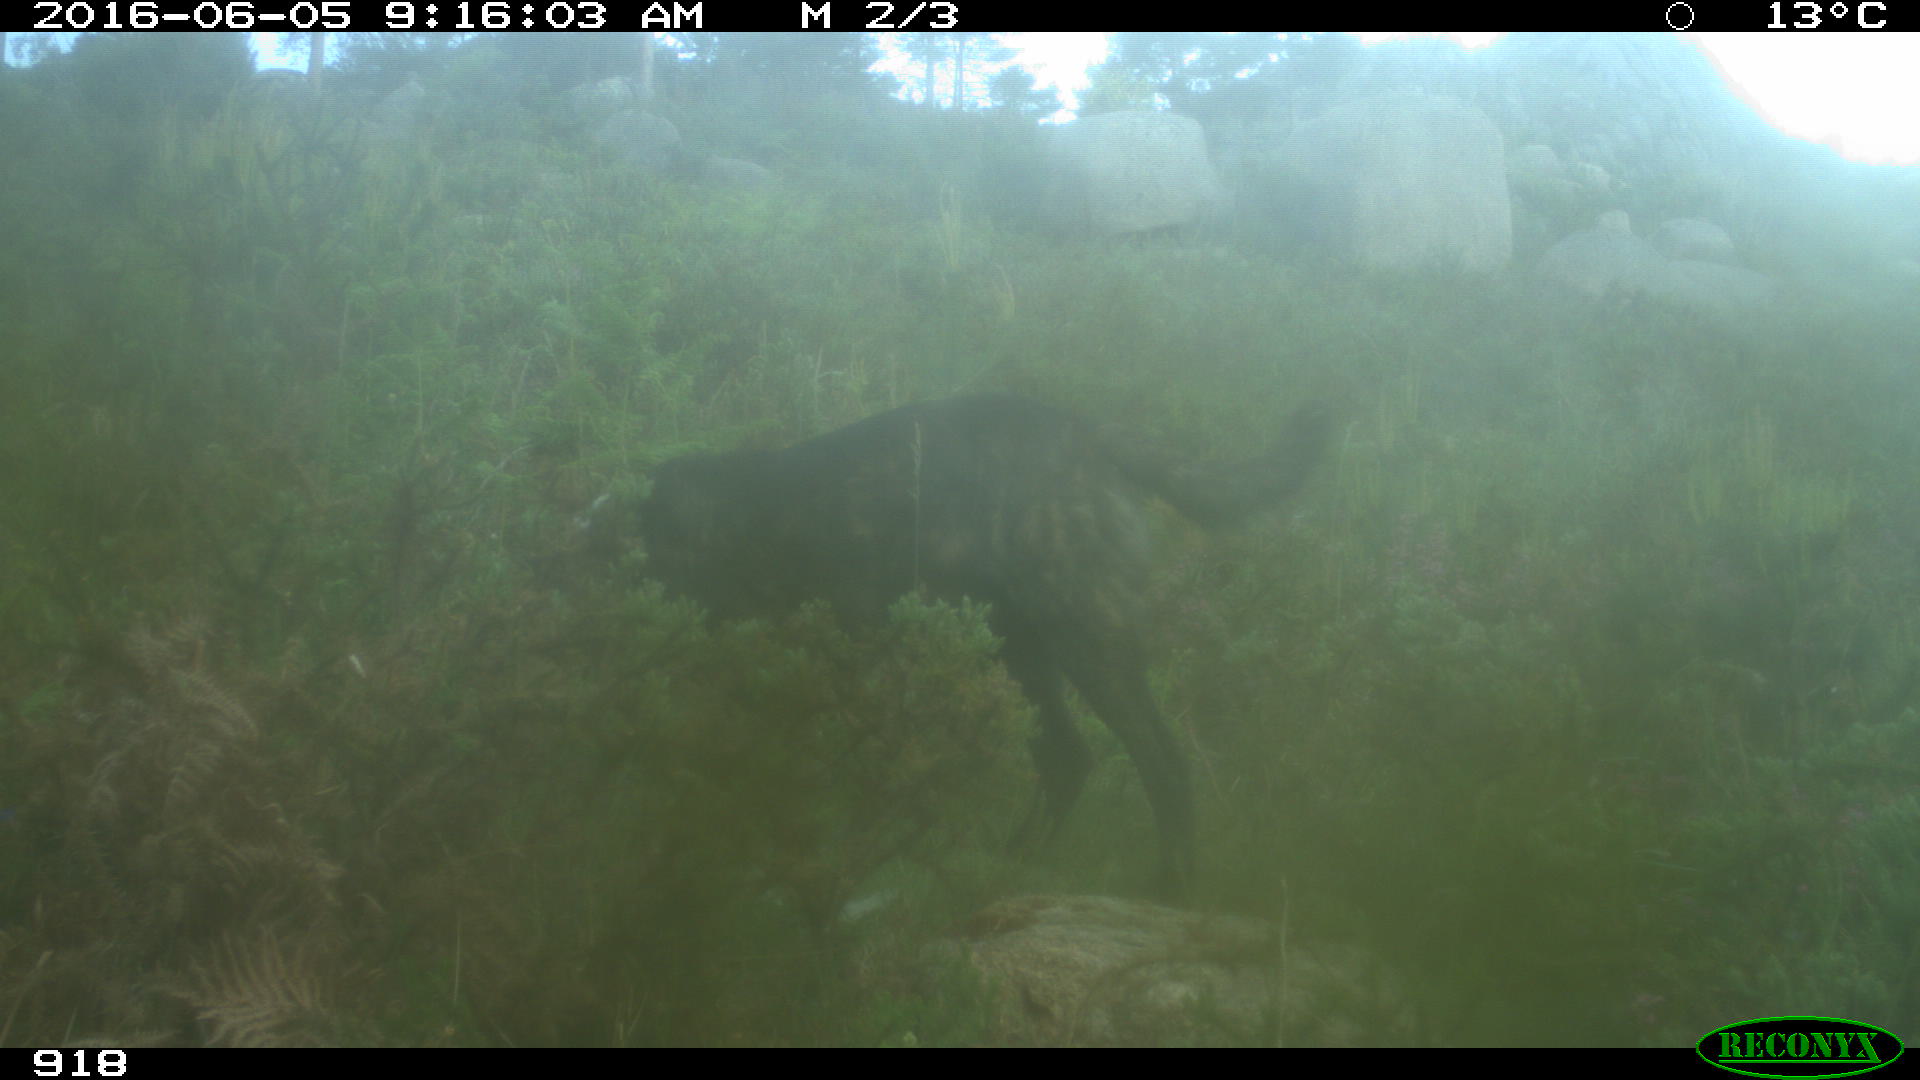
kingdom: Animalia
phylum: Chordata
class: Mammalia
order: Carnivora
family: Canidae
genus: Canis
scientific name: Canis lupus
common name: Gray wolf
